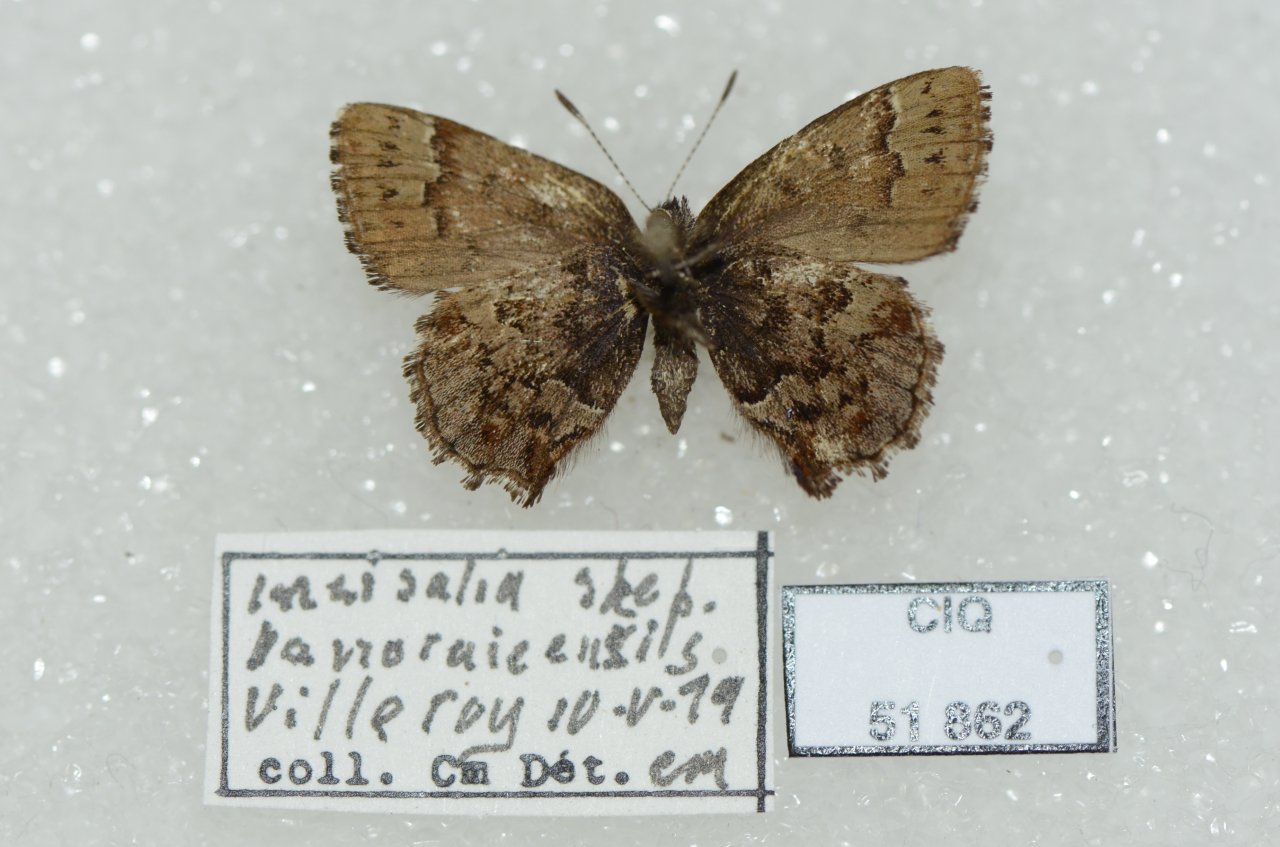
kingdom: Animalia
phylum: Arthropoda
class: Insecta
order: Lepidoptera
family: Lycaenidae
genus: Incisalia
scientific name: Incisalia lanoraieensis
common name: Bog Elfin
